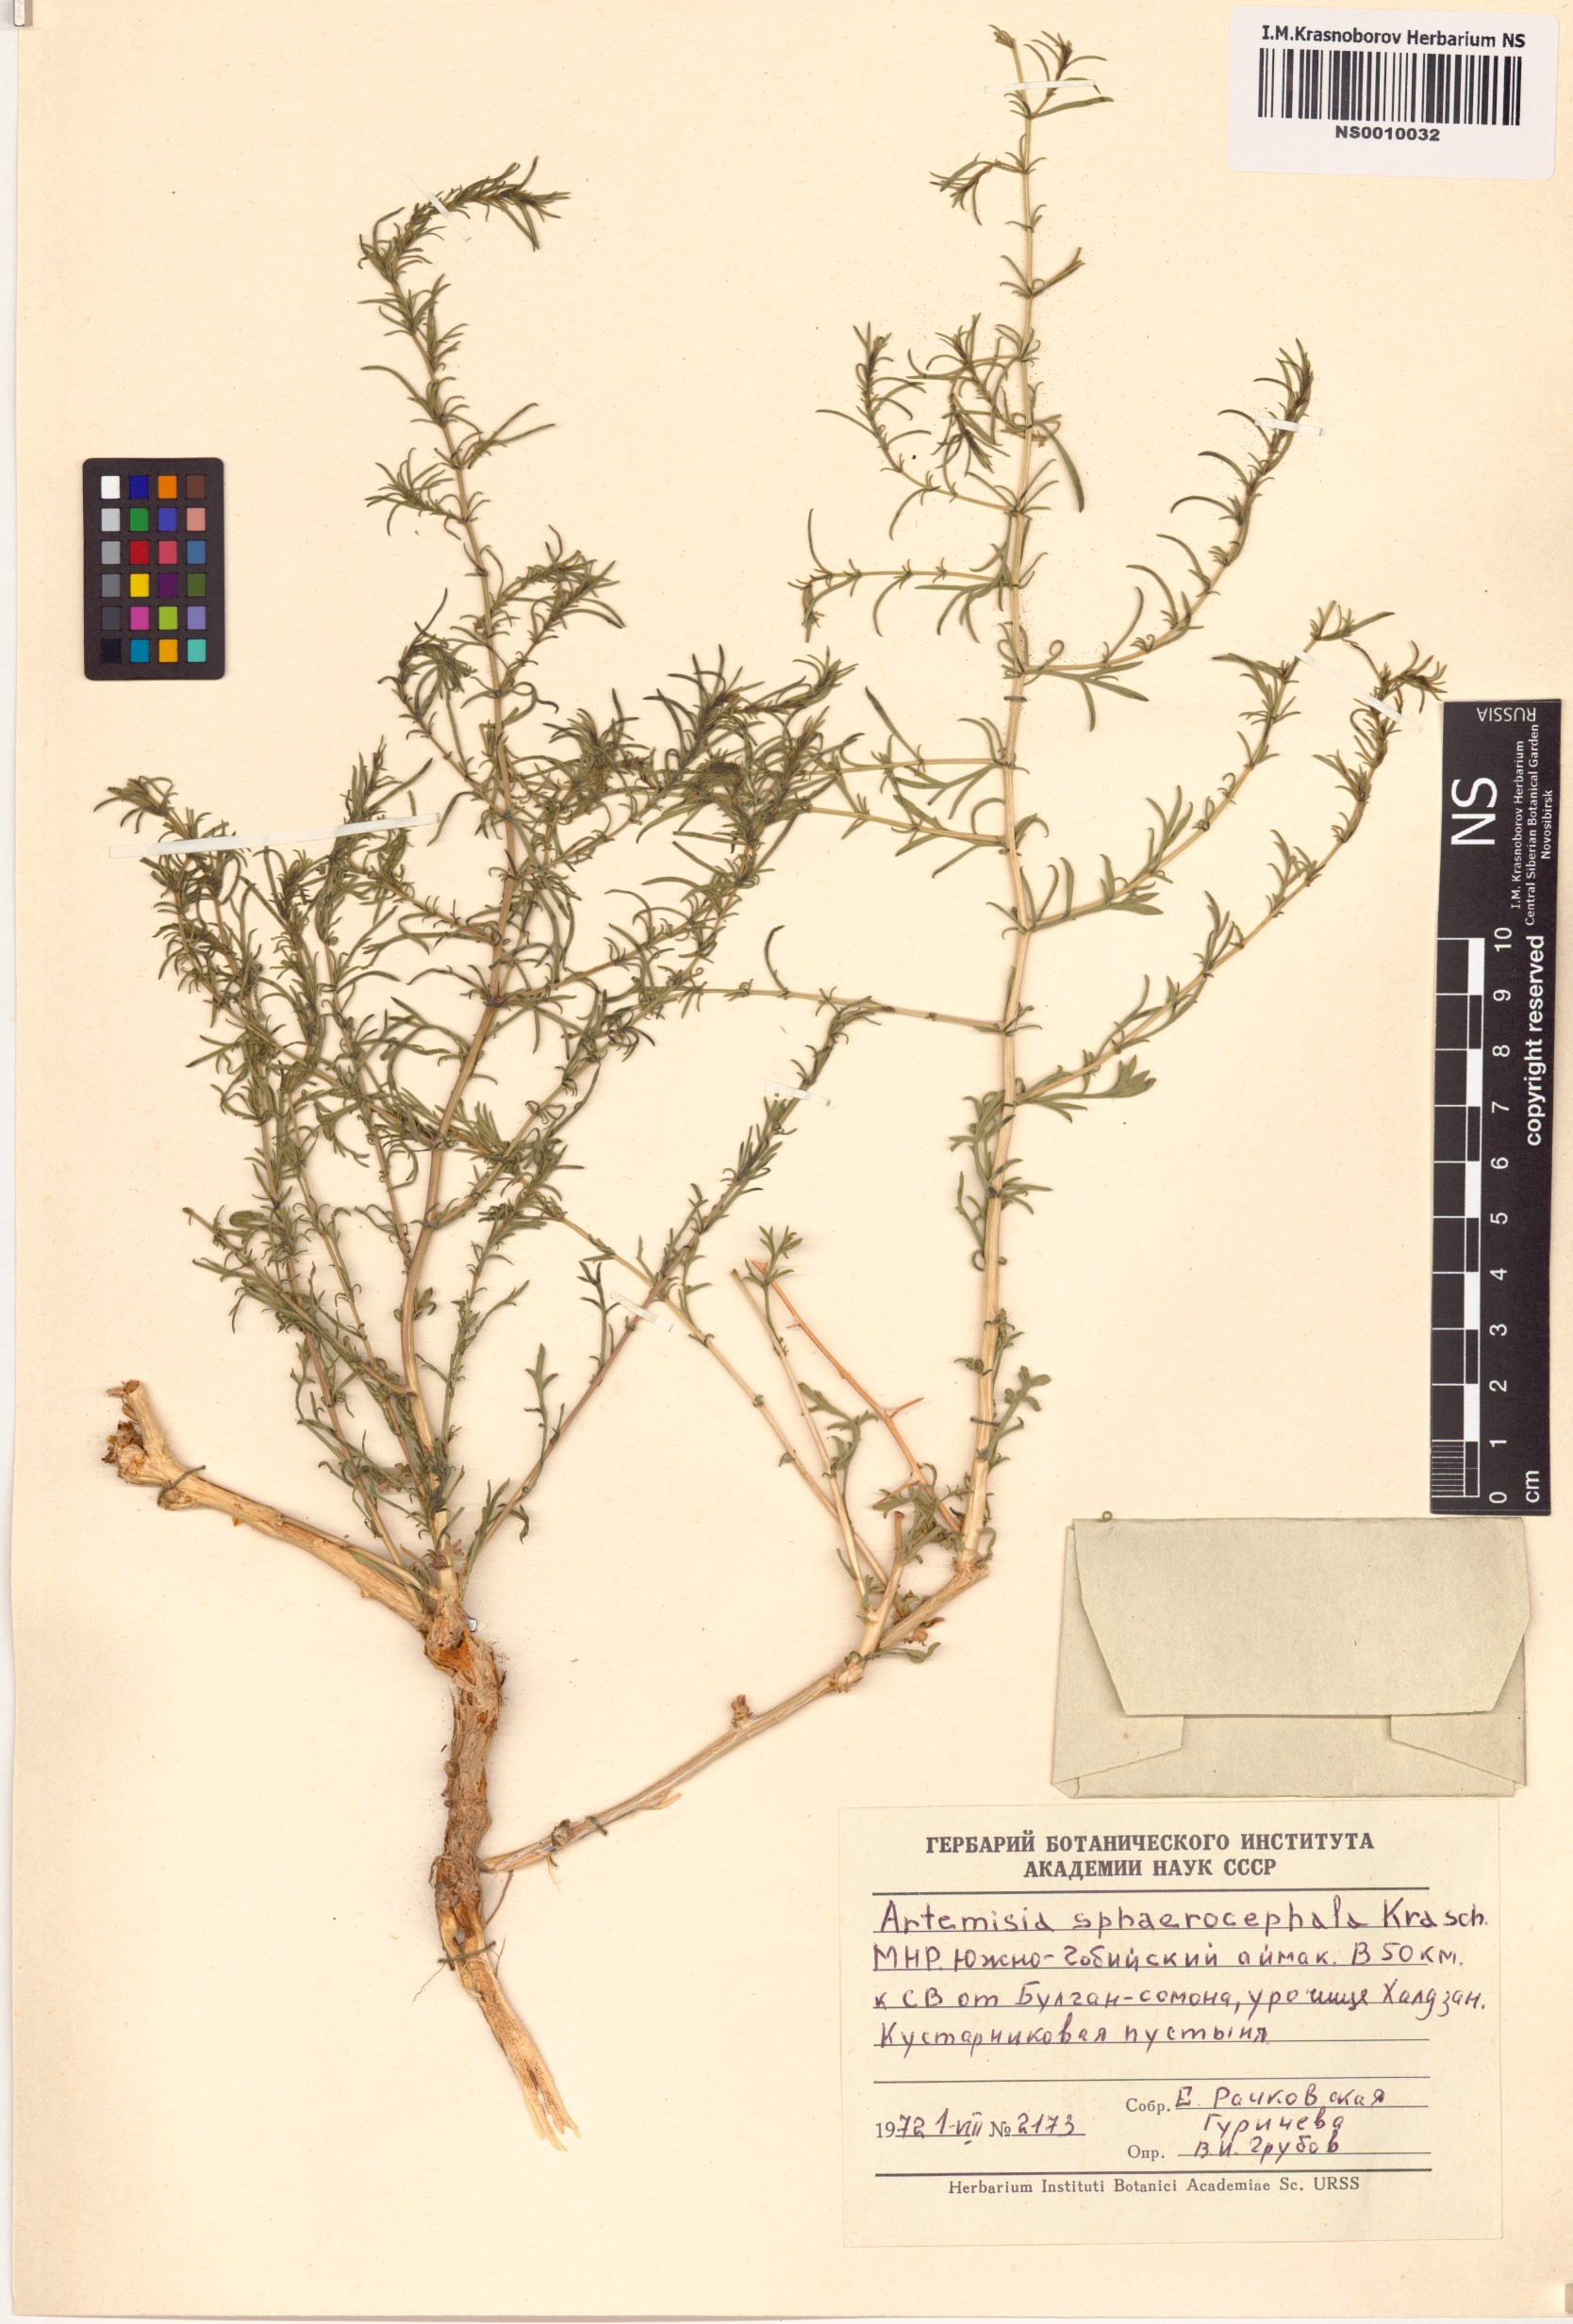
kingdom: Plantae
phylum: Tracheophyta
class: Magnoliopsida
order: Asterales
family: Asteraceae
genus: Artemisia
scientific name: Artemisia sphaerocephala
